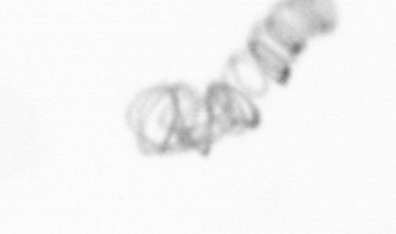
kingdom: Chromista
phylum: Ochrophyta
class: Bacillariophyceae
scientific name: Bacillariophyceae
